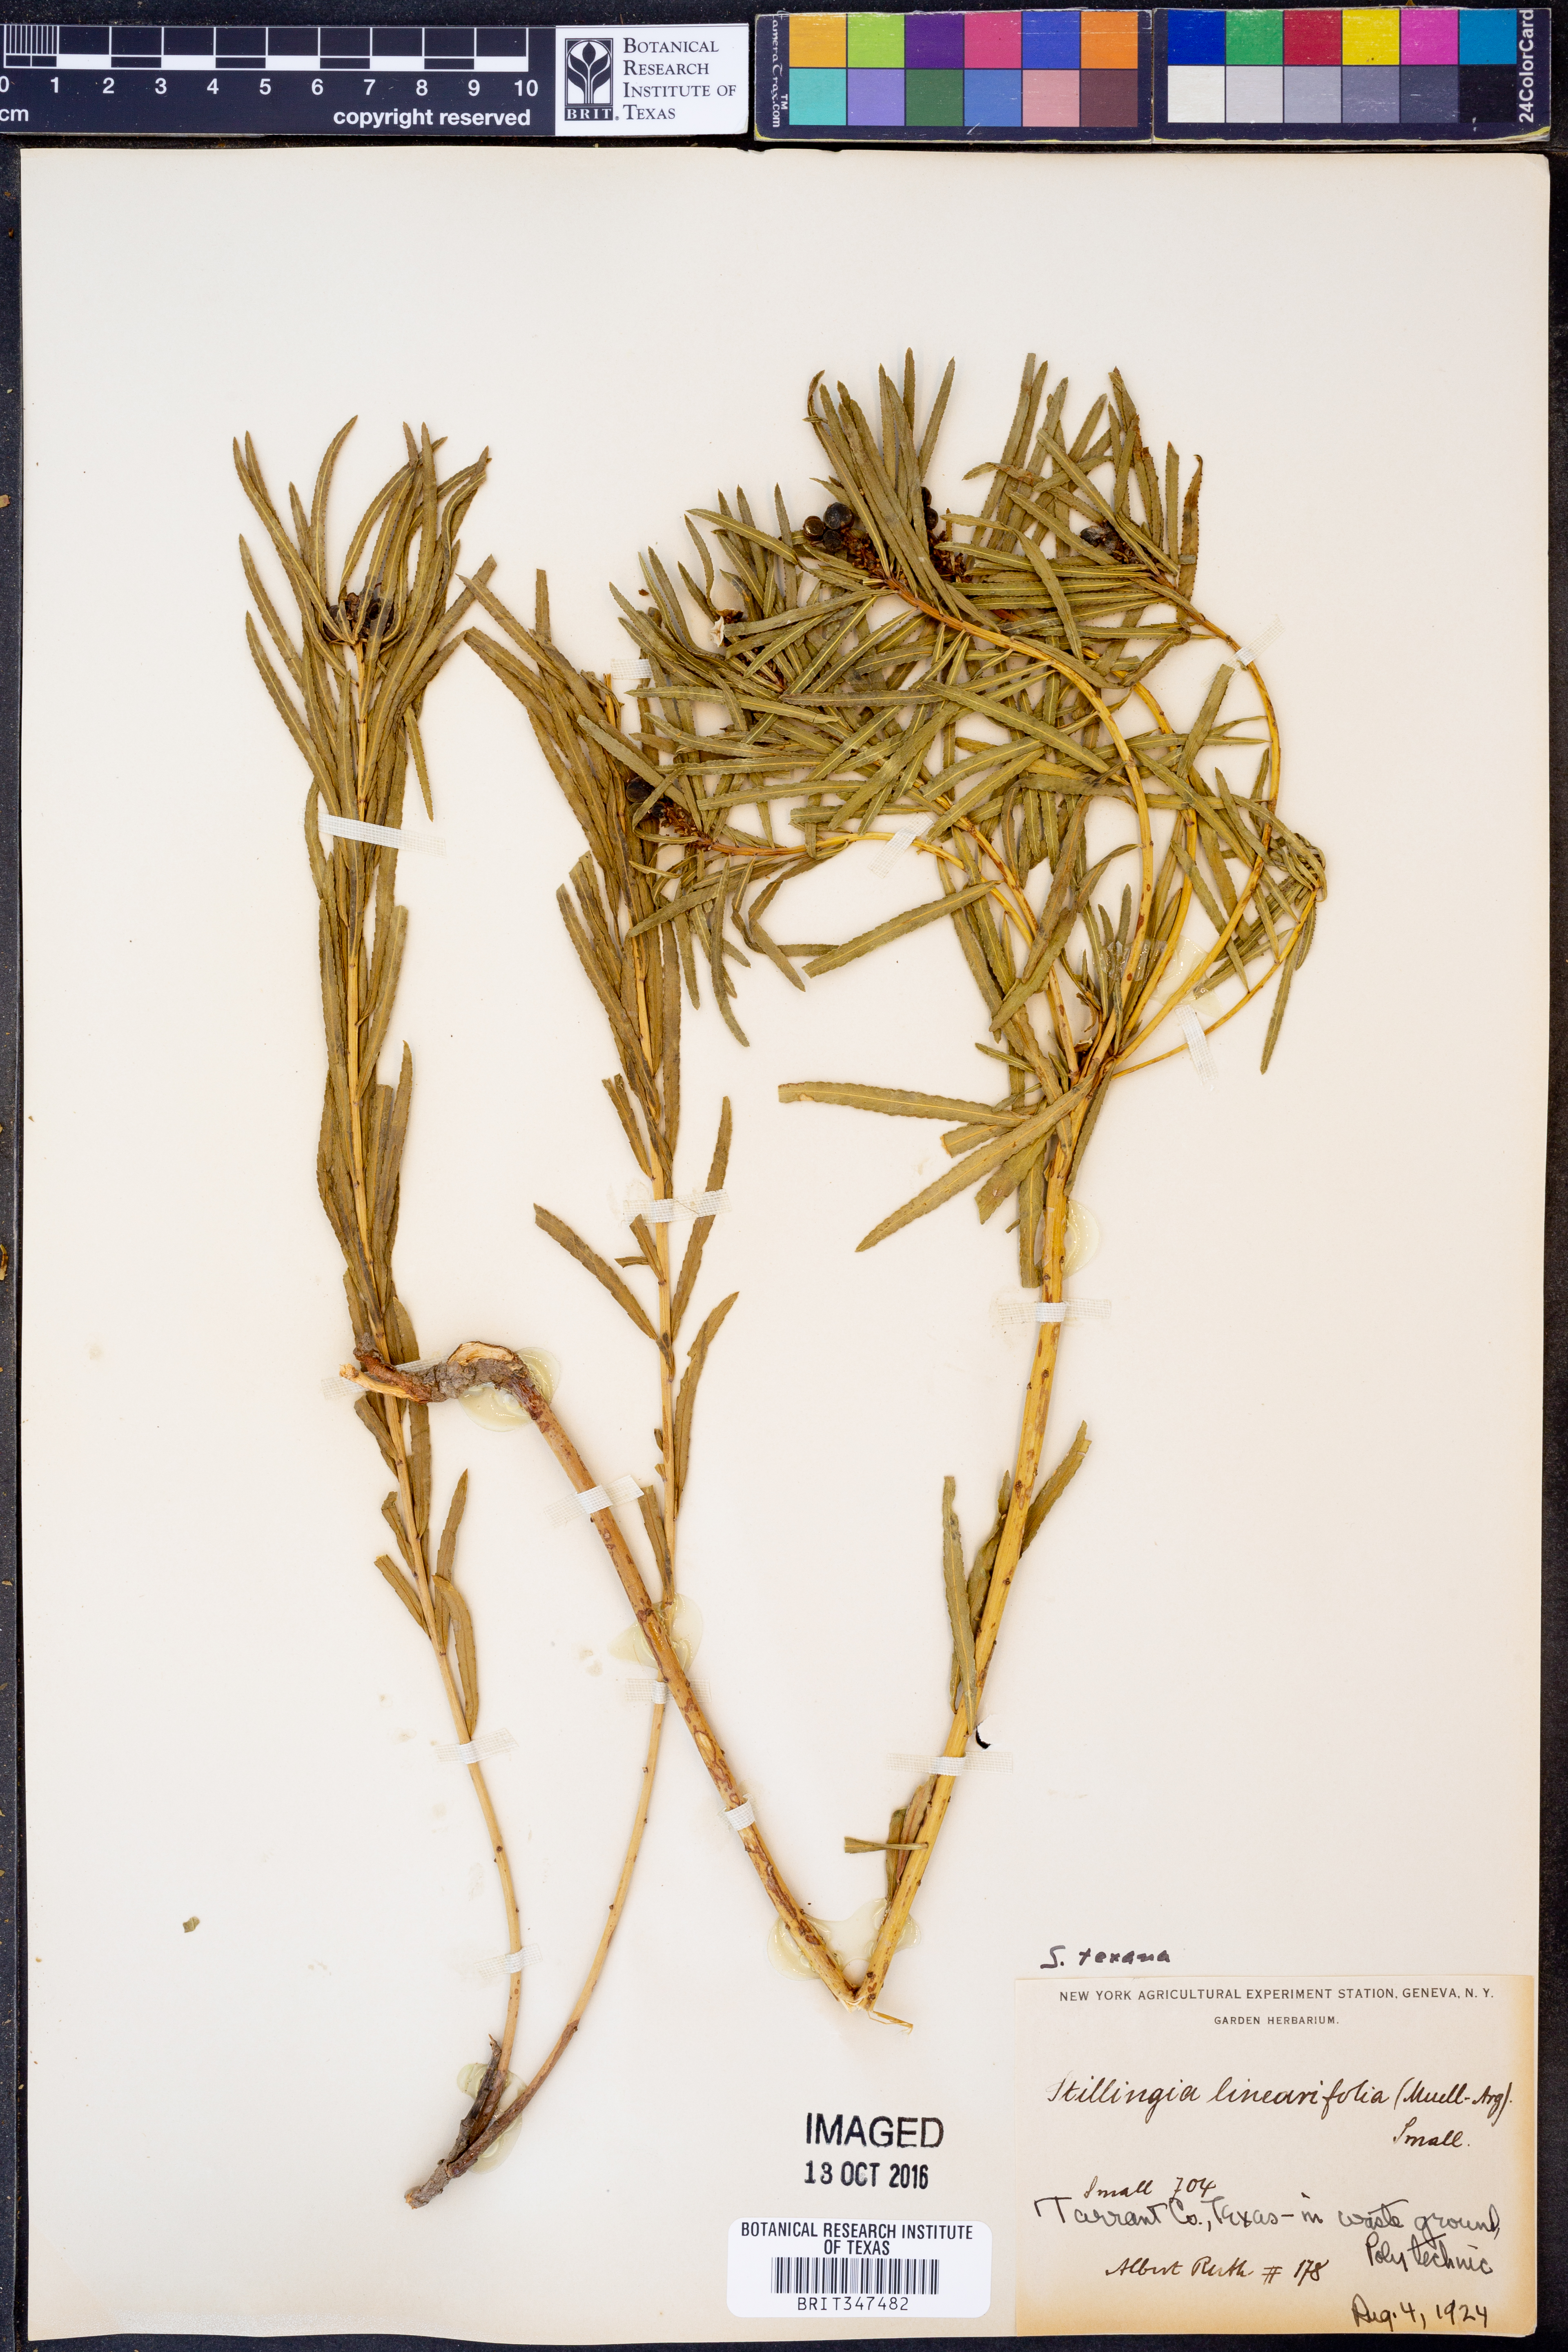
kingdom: Plantae
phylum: Tracheophyta
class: Magnoliopsida
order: Malpighiales
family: Euphorbiaceae
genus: Stillingia
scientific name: Stillingia texana
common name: Texas stillingia
